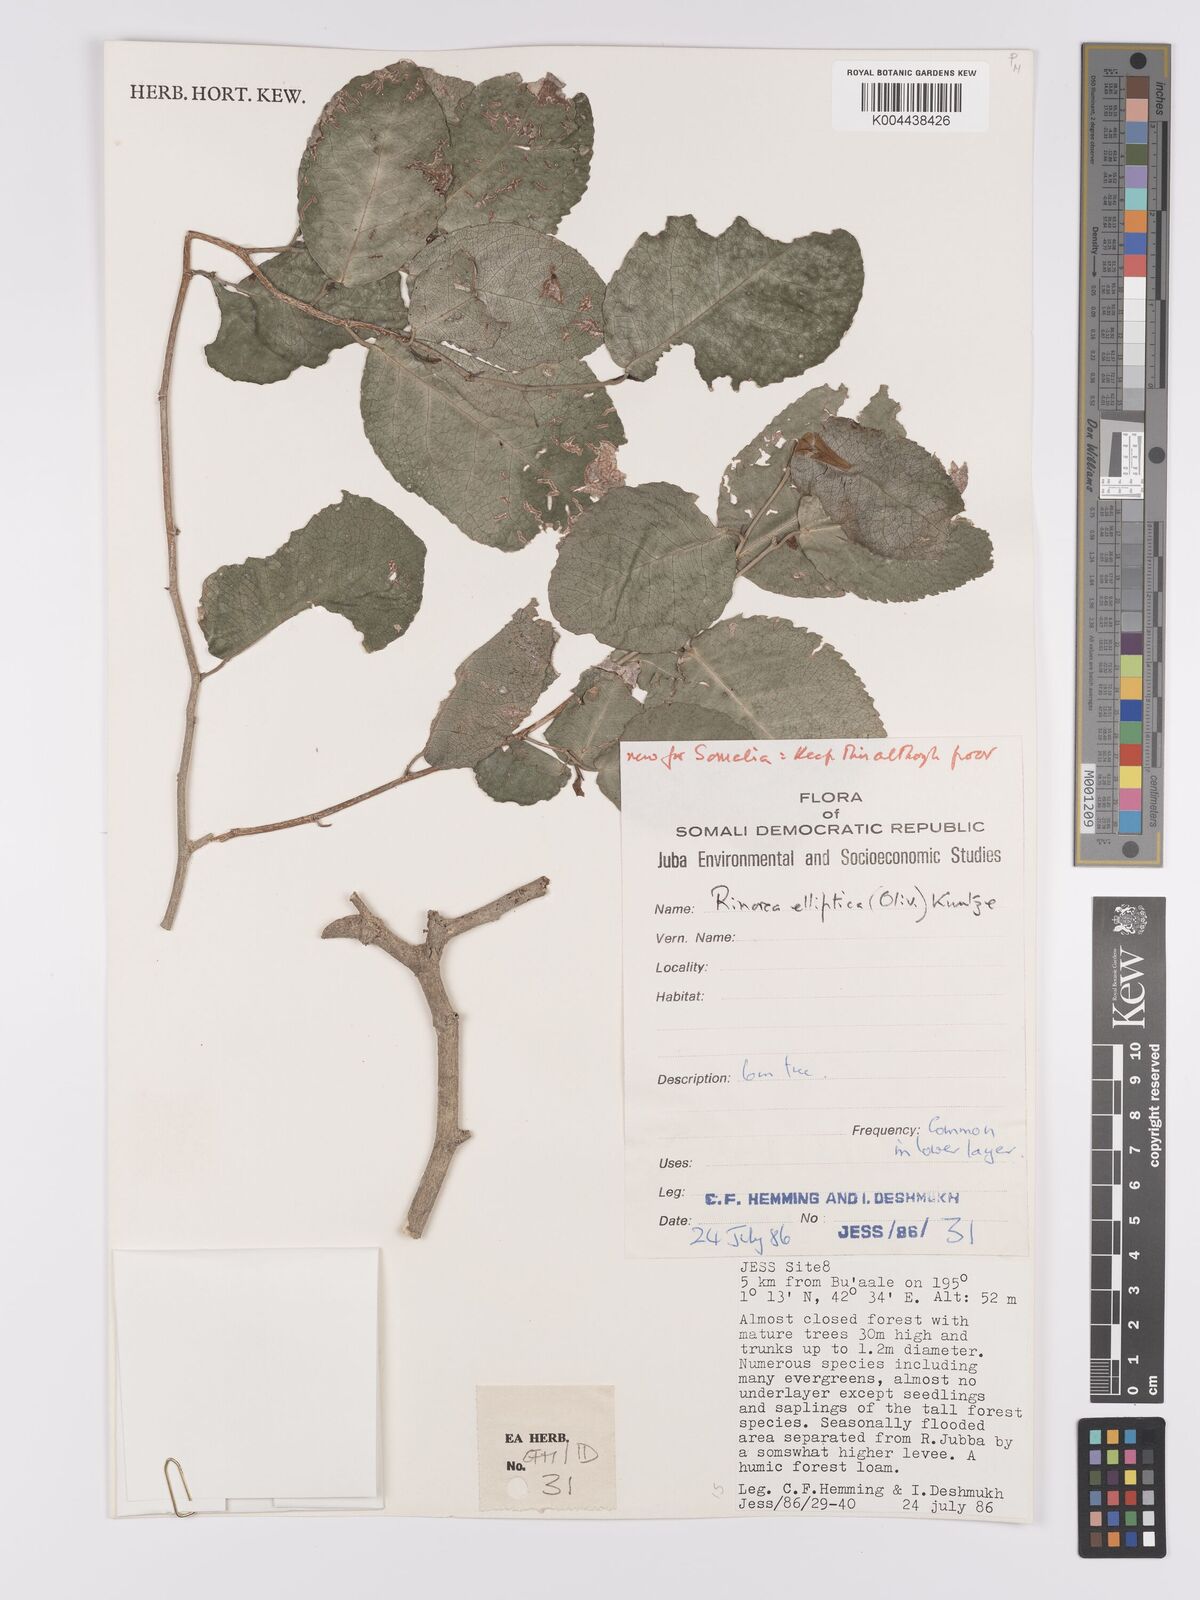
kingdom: Plantae
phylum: Tracheophyta
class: Magnoliopsida
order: Malpighiales
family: Violaceae
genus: Rinorea
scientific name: Rinorea elliptica
